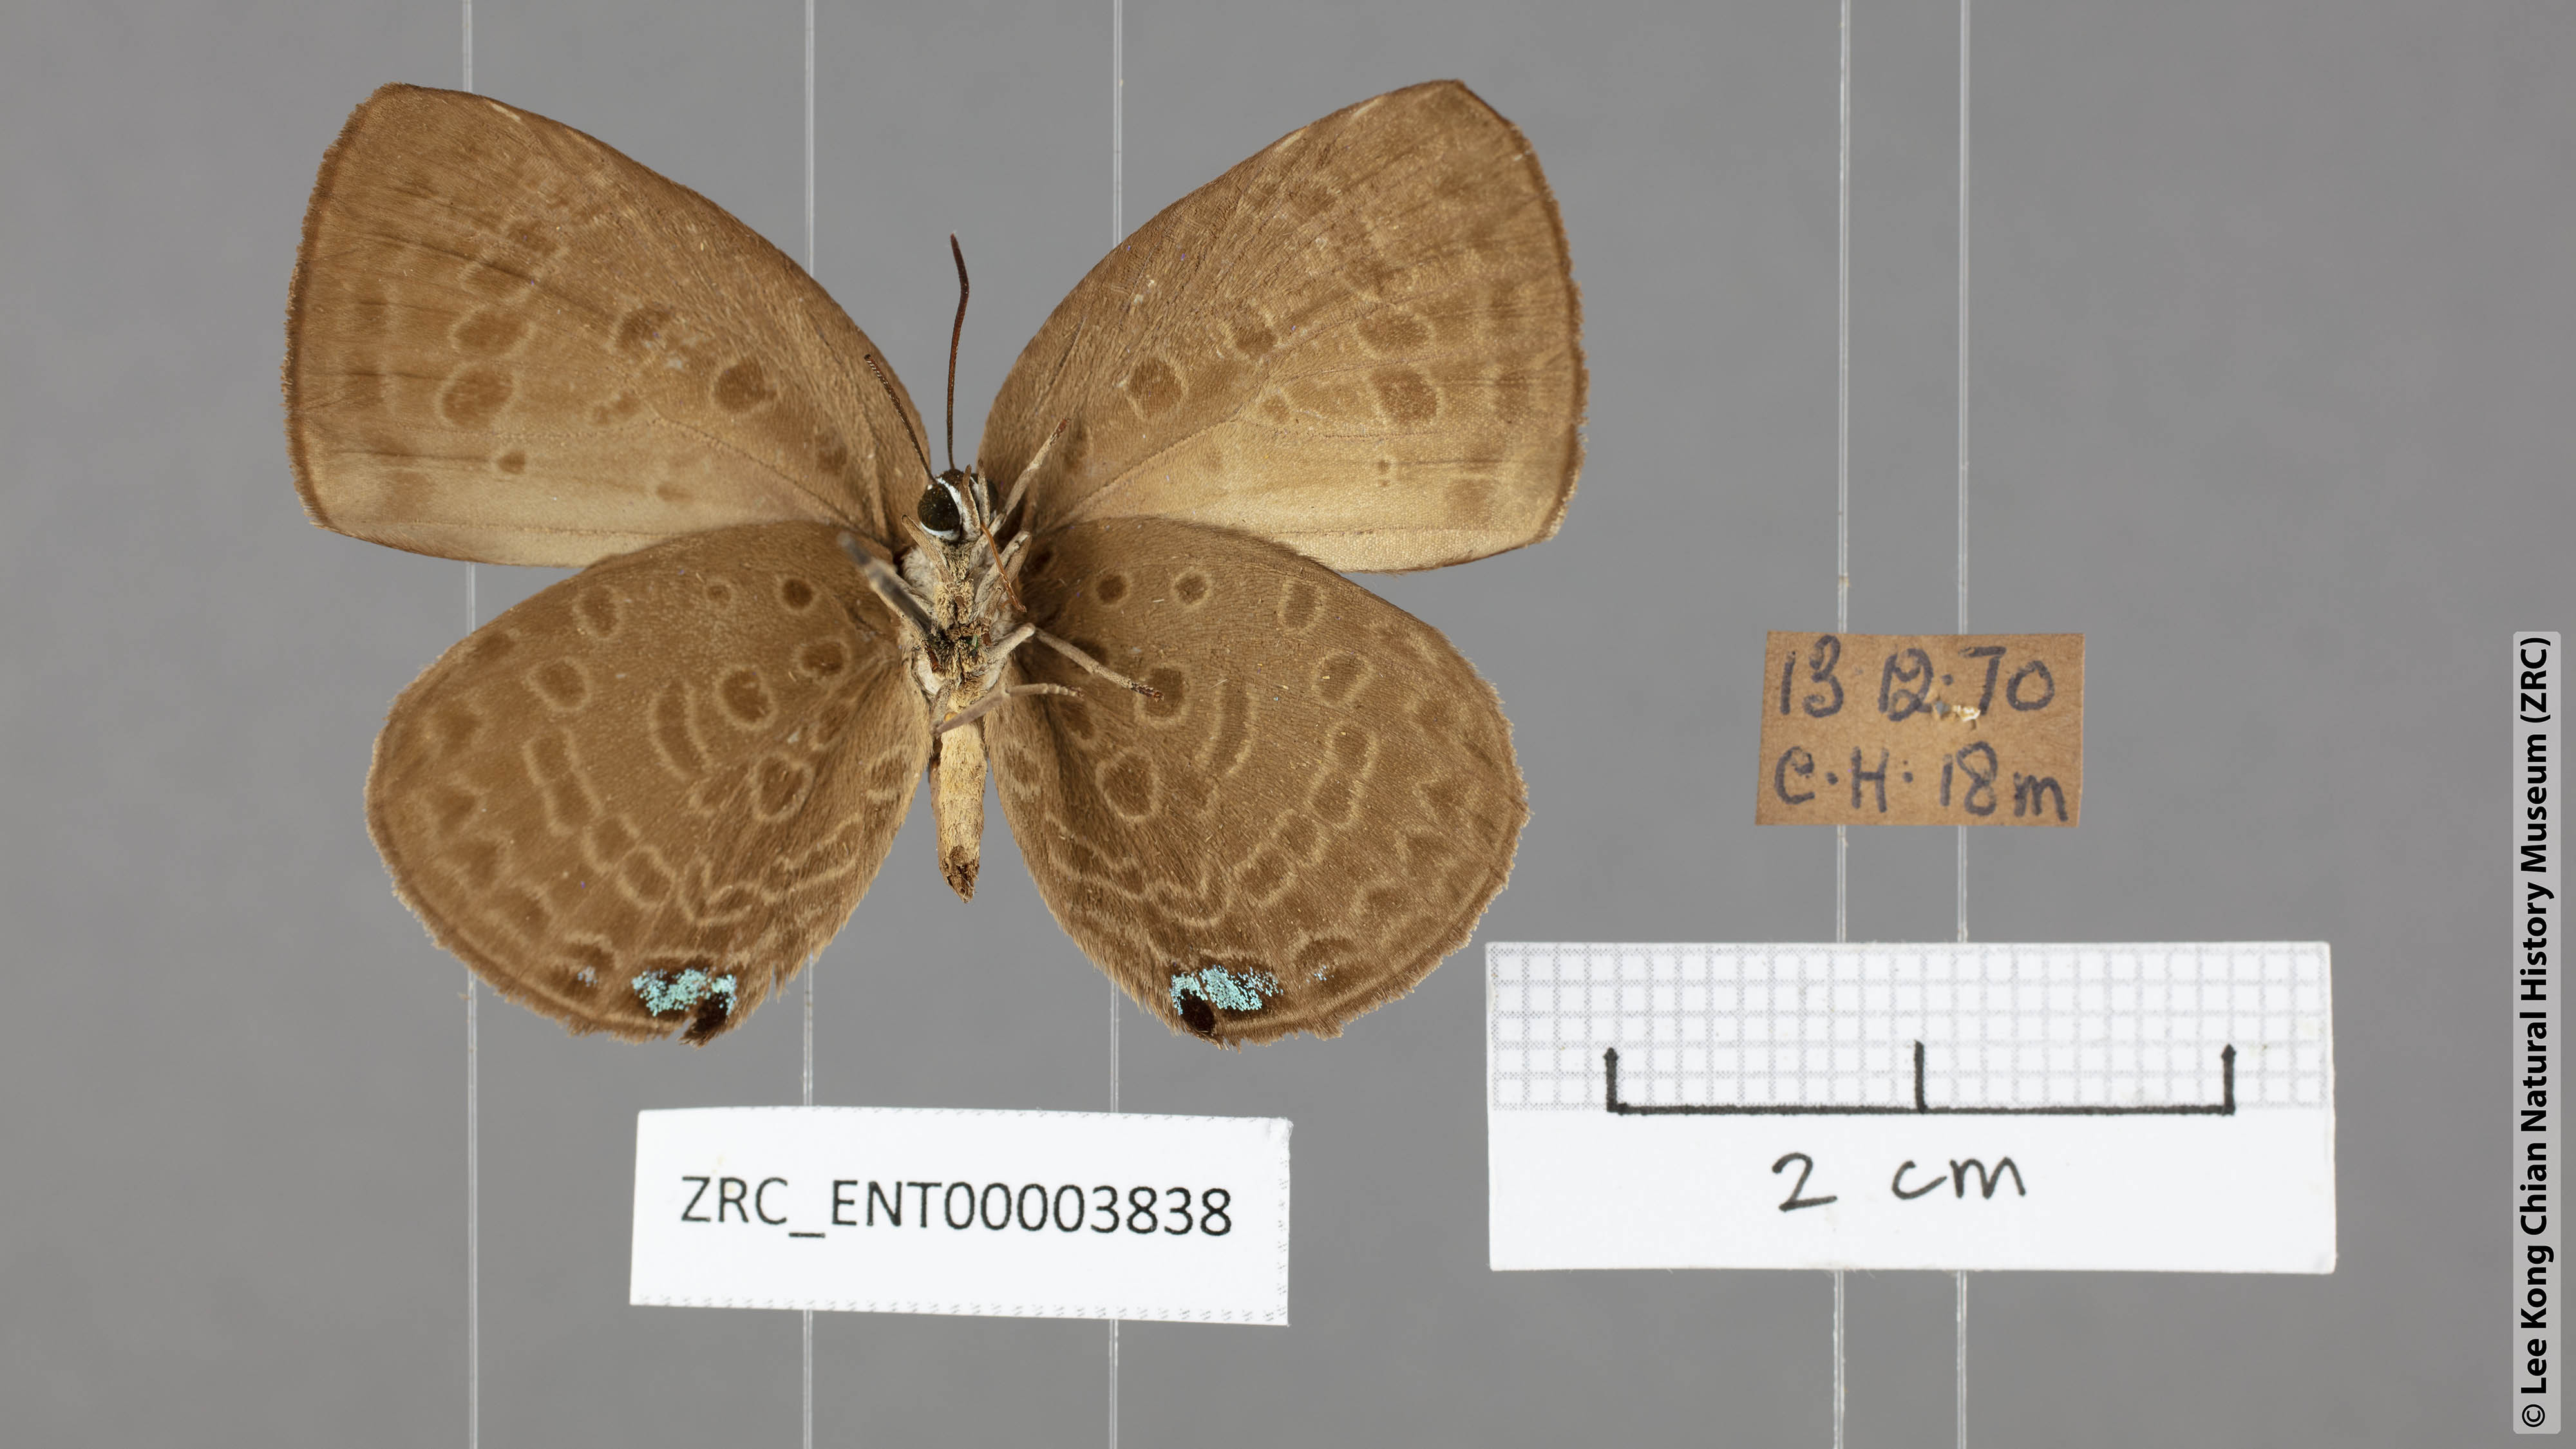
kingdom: Animalia
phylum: Arthropoda
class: Insecta
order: Lepidoptera
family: Lycaenidae
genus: Arhopala
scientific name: Arhopala amphimuta
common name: Broad yellow oakblue
